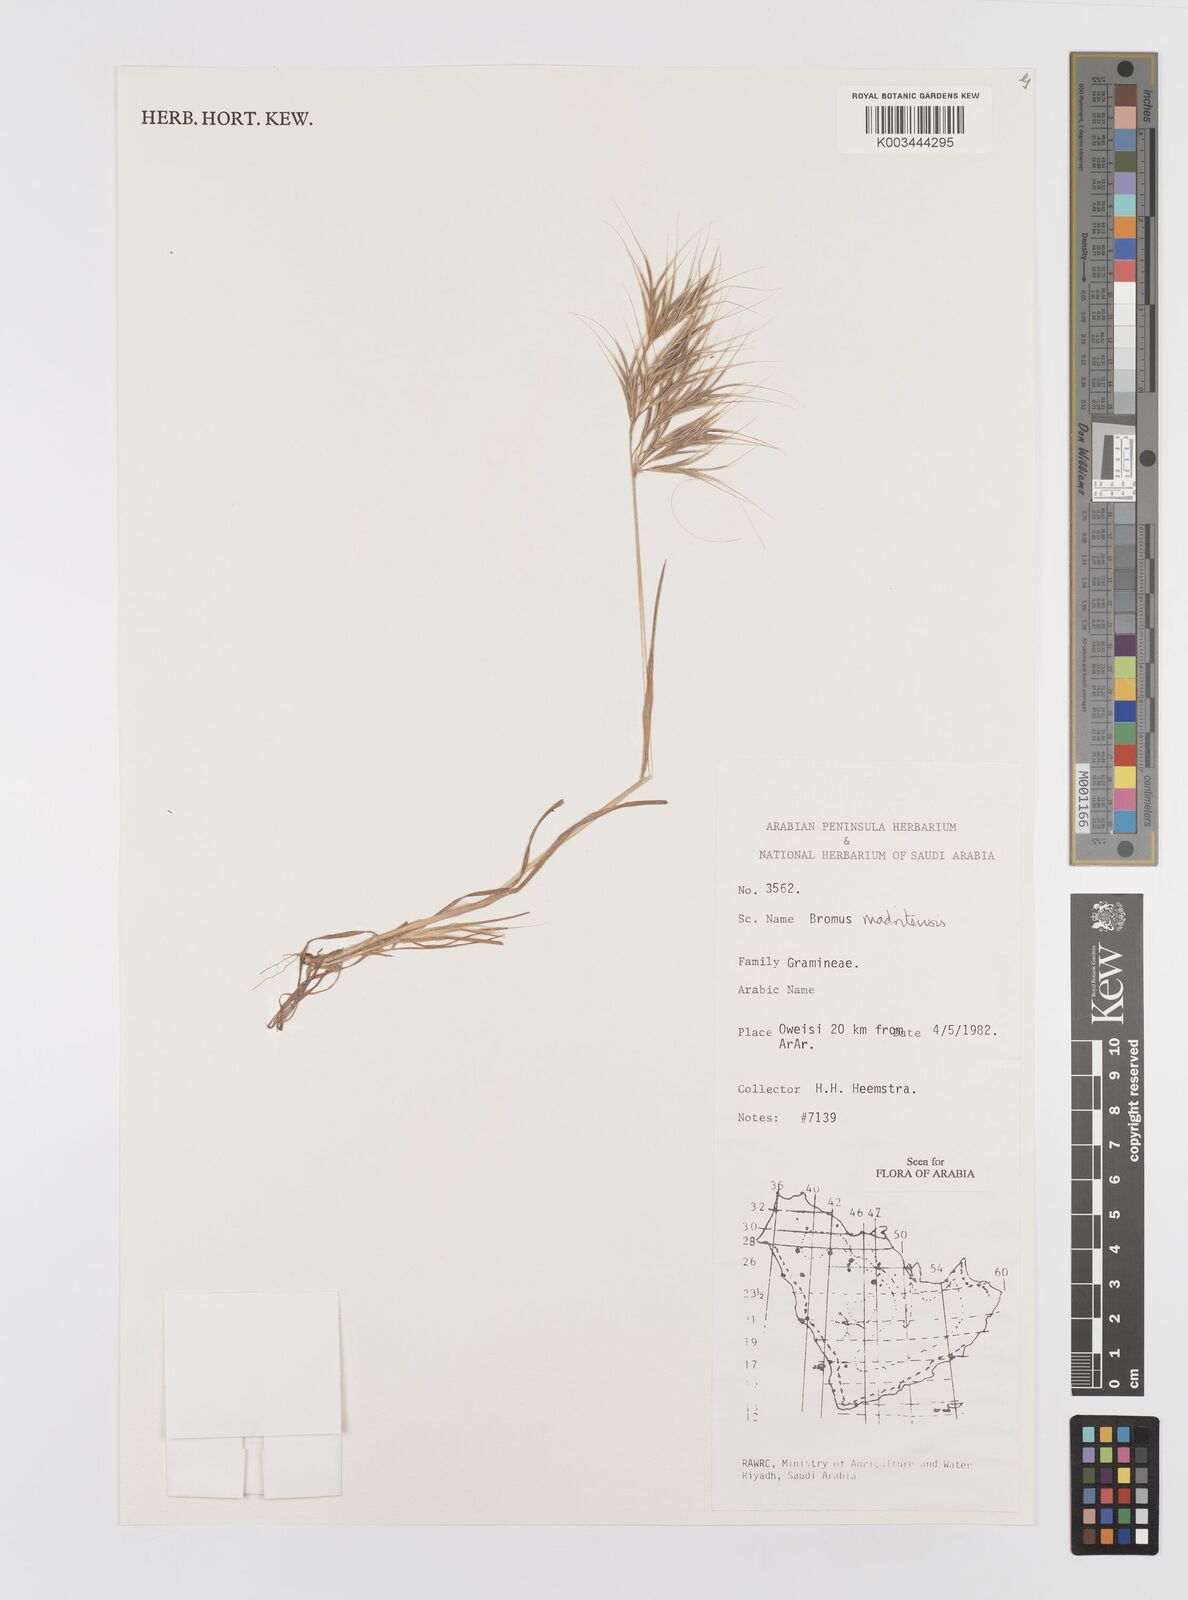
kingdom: Plantae
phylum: Tracheophyta
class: Liliopsida
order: Poales
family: Poaceae
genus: Bromus
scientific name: Bromus madritensis
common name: Compact brome
